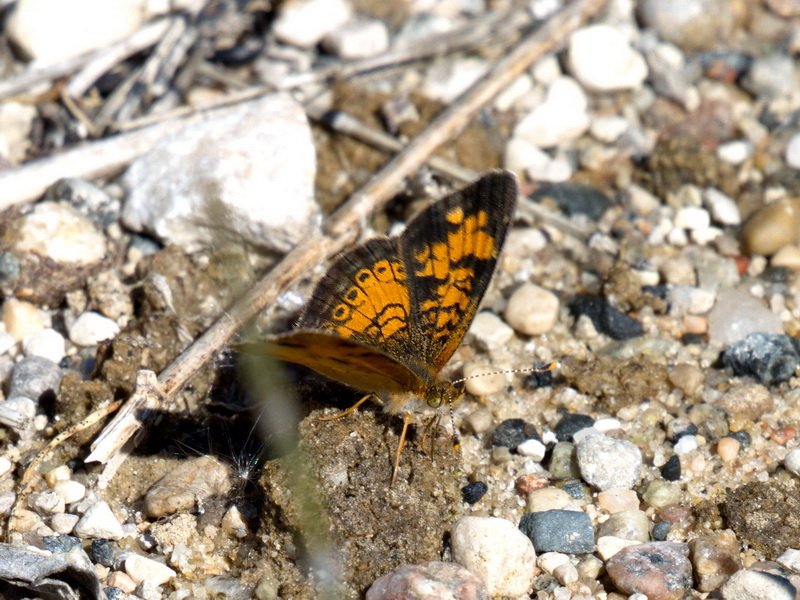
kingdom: Animalia
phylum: Arthropoda
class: Insecta
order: Lepidoptera
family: Nymphalidae
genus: Phyciodes
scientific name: Phyciodes tharos
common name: Northern Crescent
